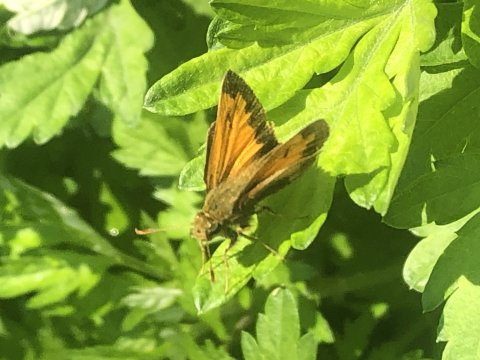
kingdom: Animalia
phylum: Arthropoda
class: Insecta
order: Lepidoptera
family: Hesperiidae
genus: Lon
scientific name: Lon hobomok
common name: Hobomok Skipper
